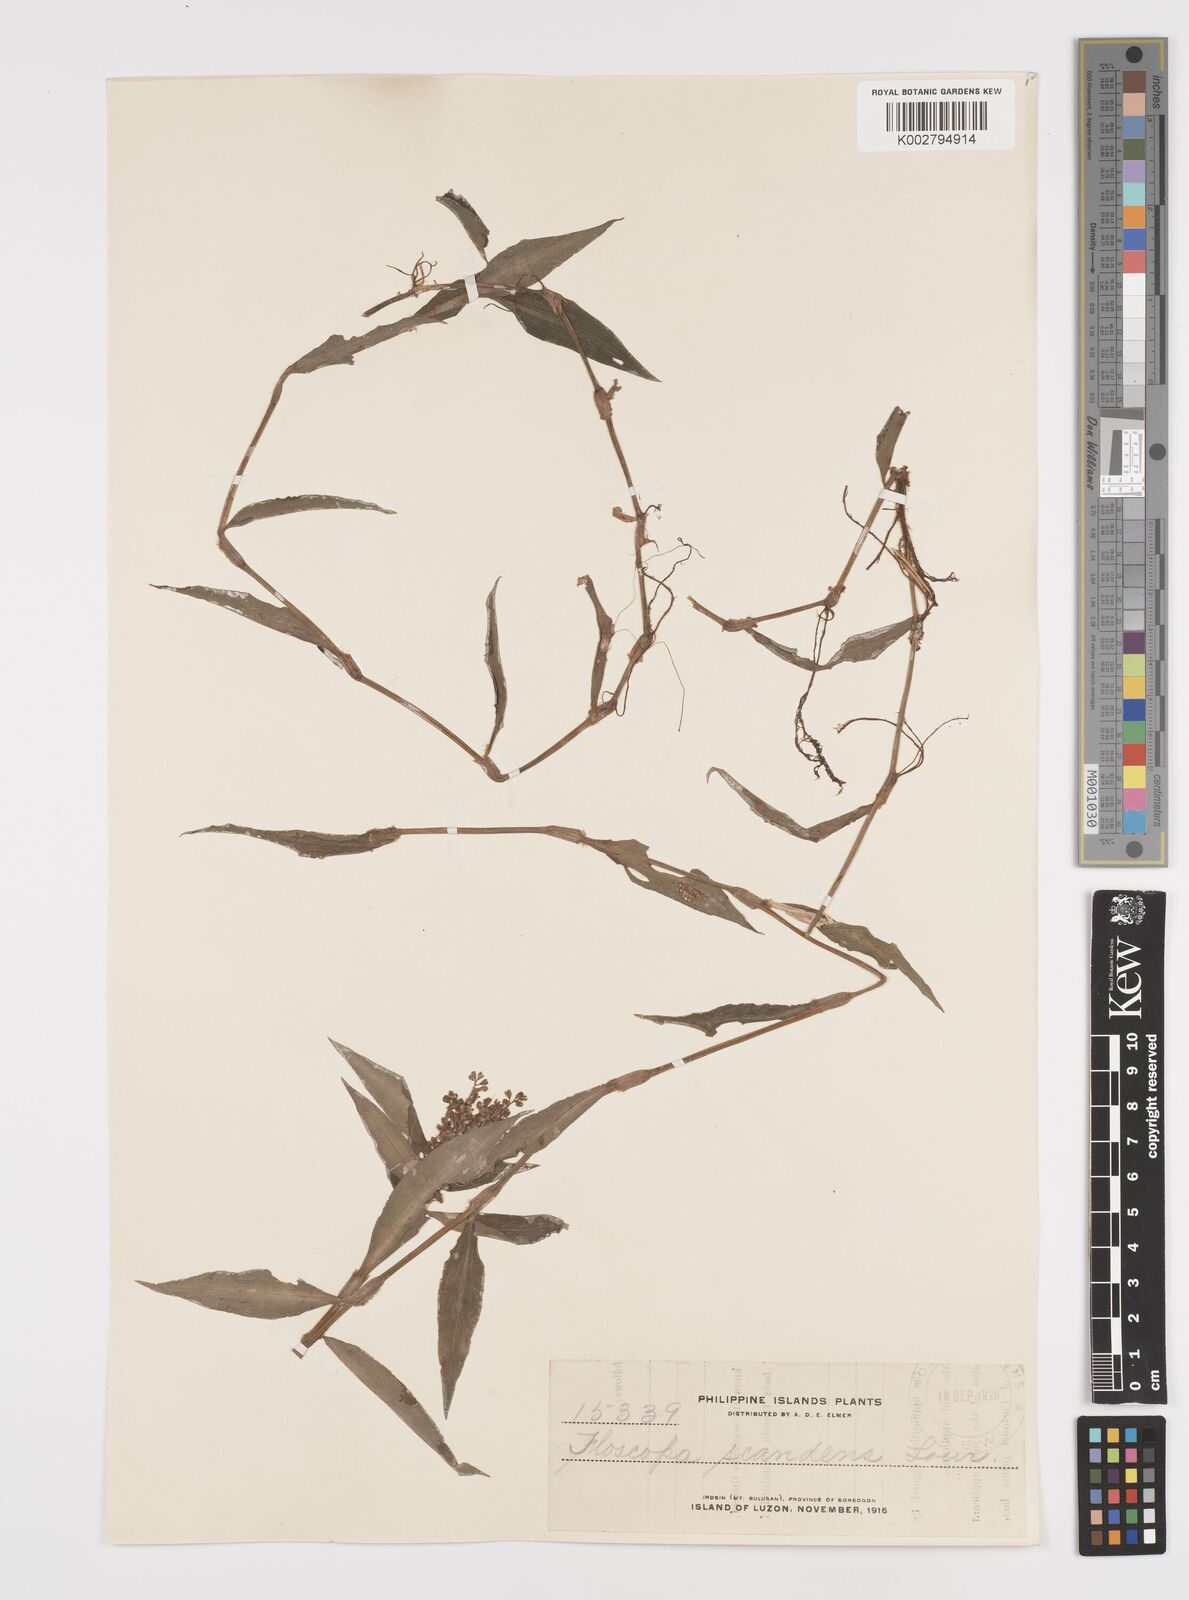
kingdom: Plantae
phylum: Tracheophyta
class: Liliopsida
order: Commelinales
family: Commelinaceae
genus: Floscopa
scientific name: Floscopa scandens
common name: Climbing flower cup
